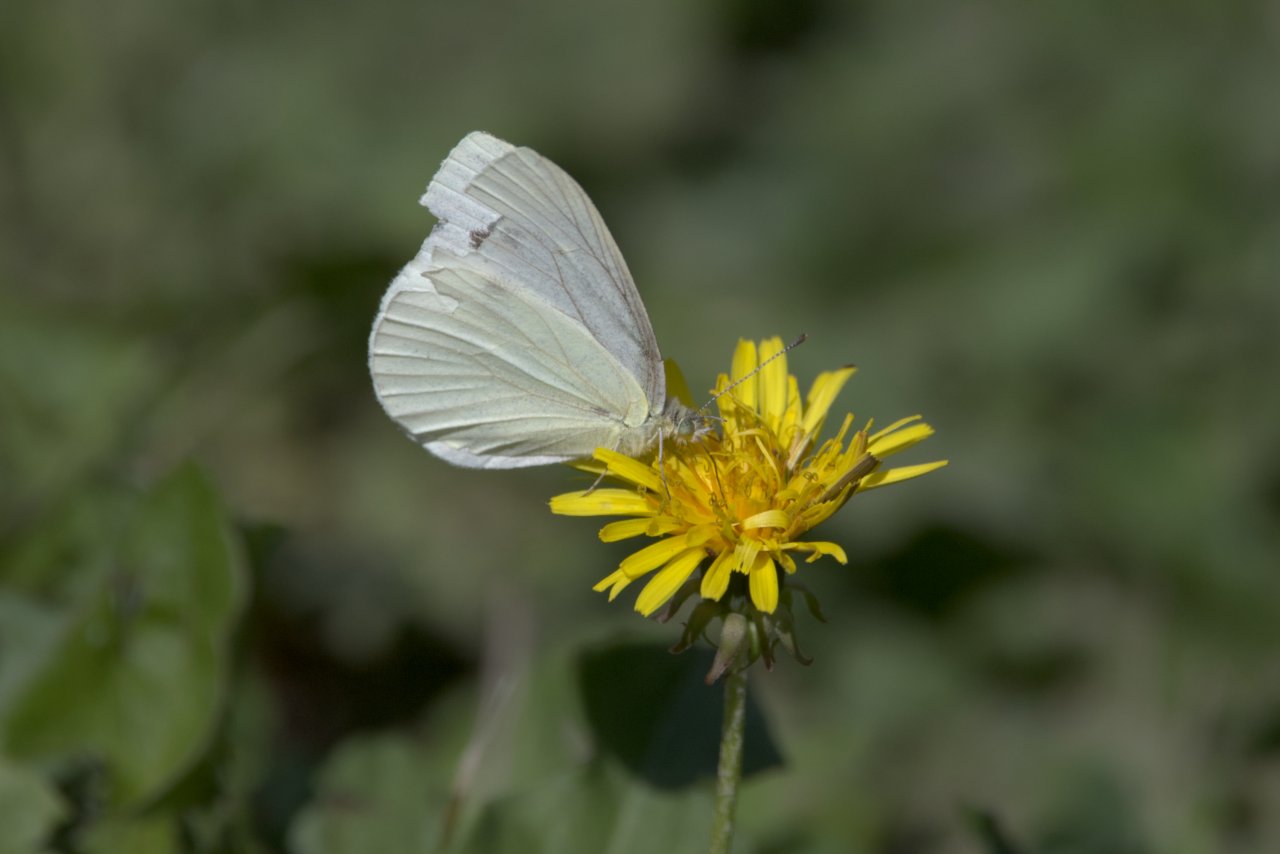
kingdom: Animalia
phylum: Arthropoda
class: Insecta
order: Lepidoptera
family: Pieridae
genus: Pieris
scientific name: Pieris marginalis
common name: Margined White
